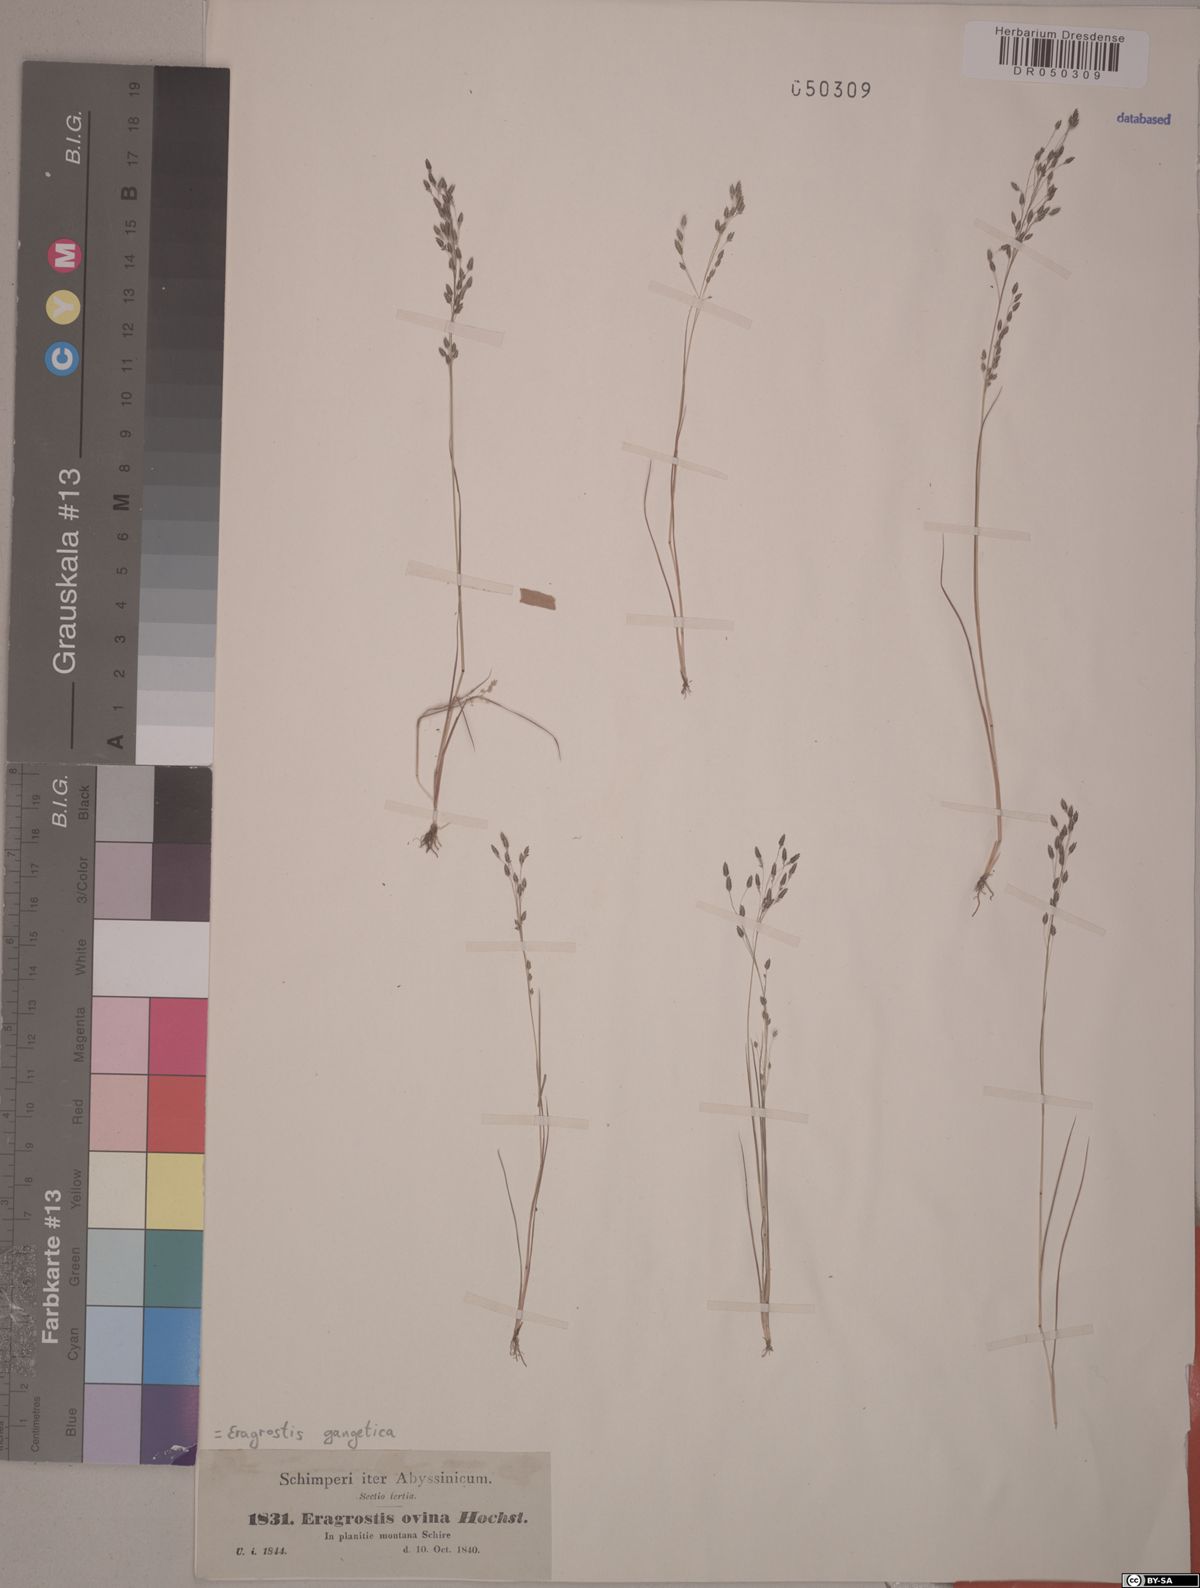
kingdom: Plantae
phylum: Tracheophyta
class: Liliopsida
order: Poales
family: Poaceae
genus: Eragrostis
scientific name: Eragrostis gangetica
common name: Slimflower lovegrass
